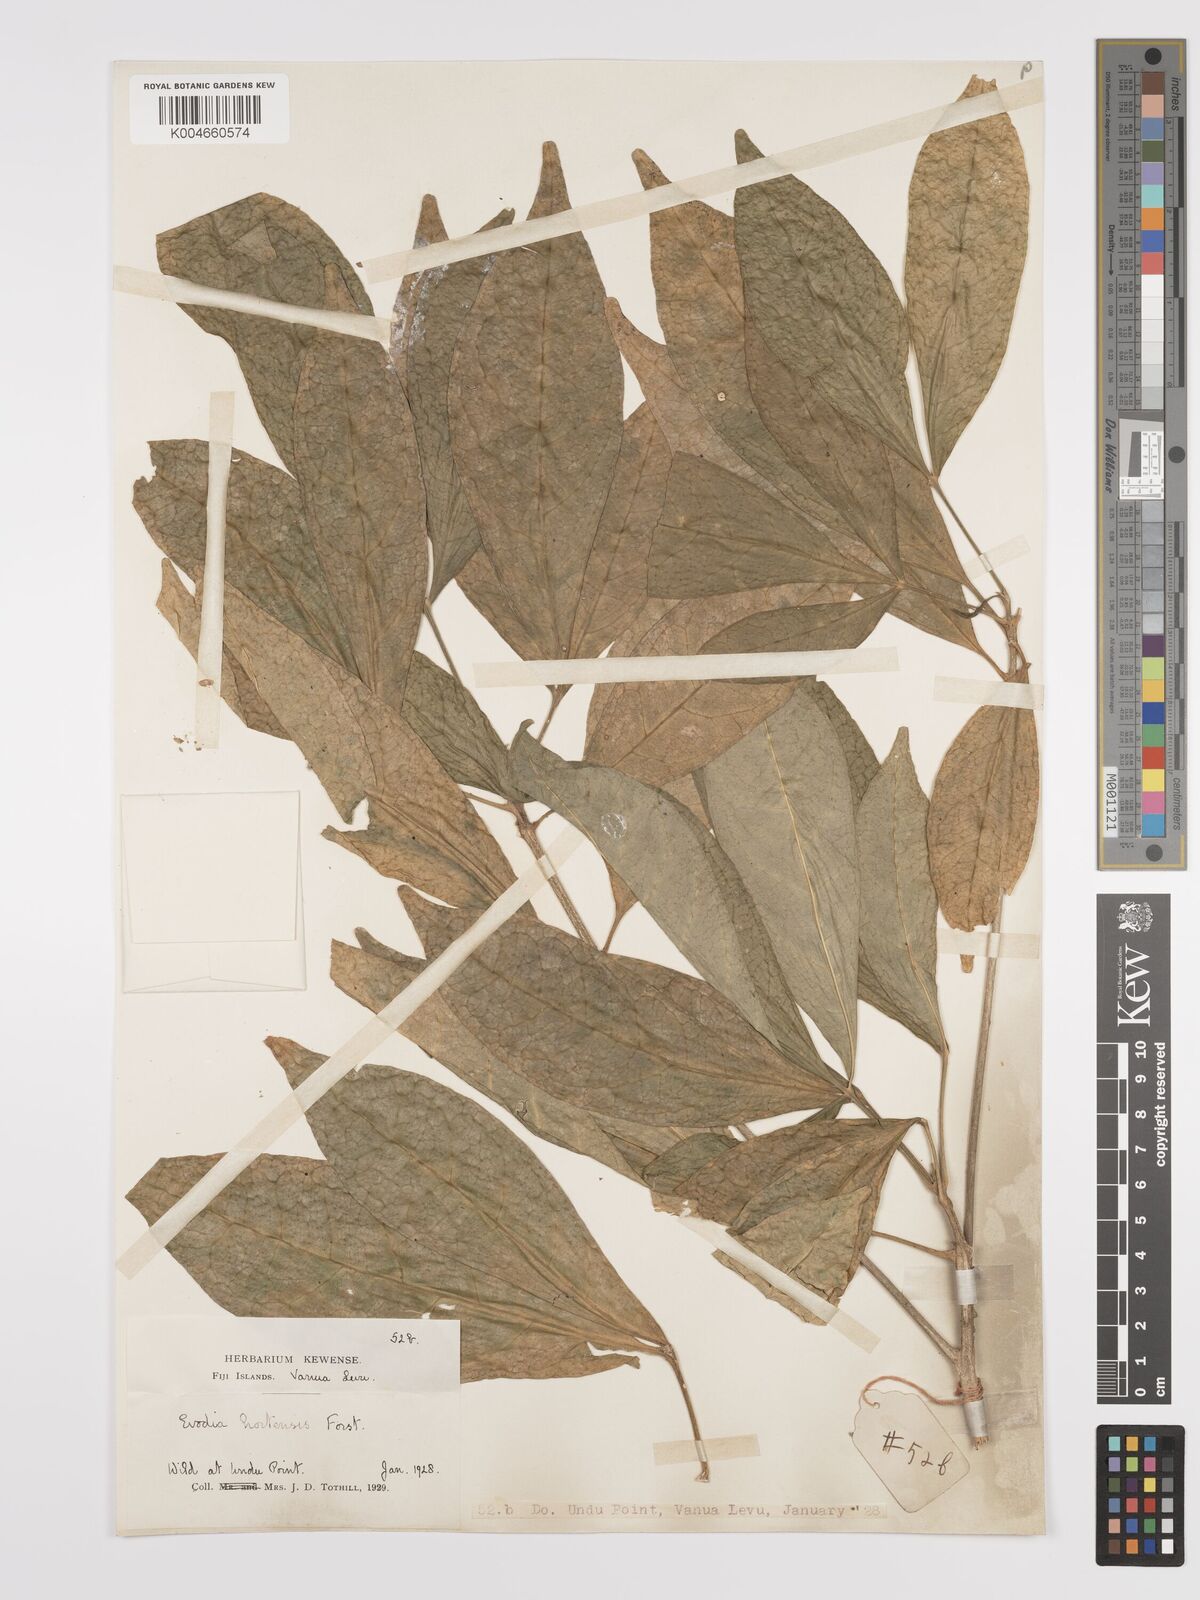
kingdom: Plantae
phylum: Tracheophyta
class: Magnoliopsida
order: Sapindales
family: Rutaceae
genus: Euodia
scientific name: Euodia hortensis
